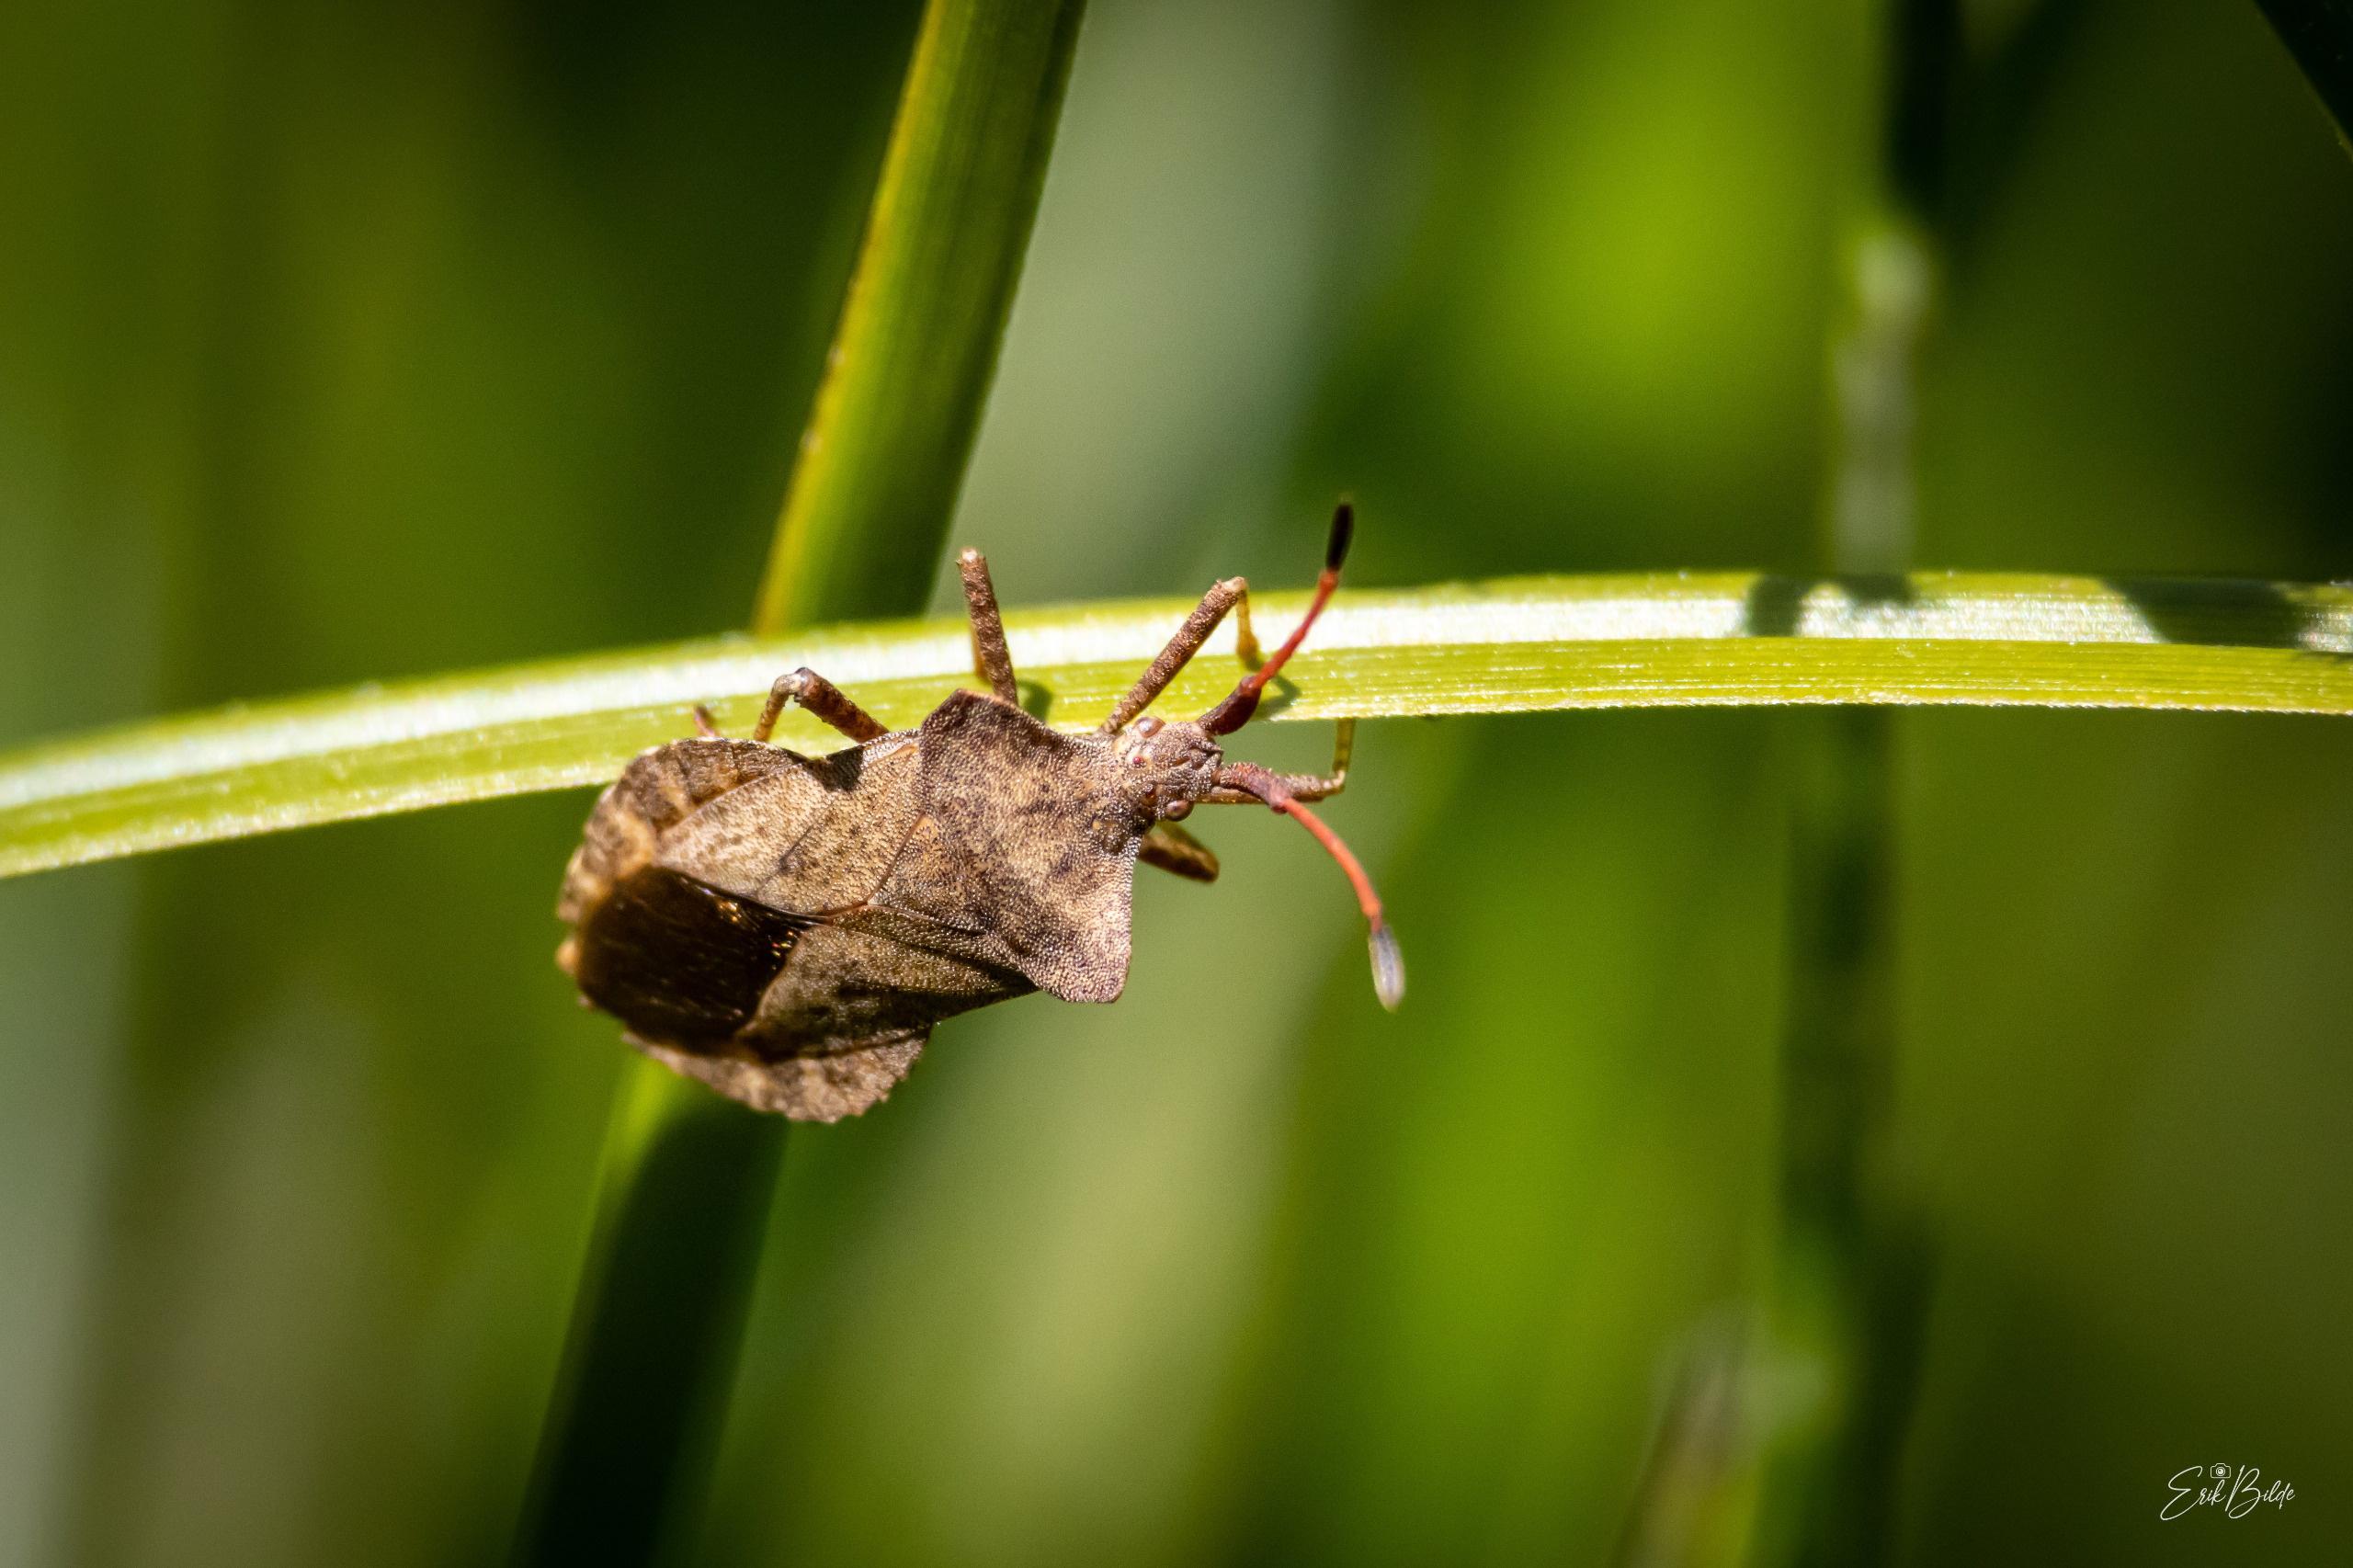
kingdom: Animalia
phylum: Arthropoda
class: Insecta
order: Hemiptera
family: Coreidae
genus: Coreus
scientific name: Coreus marginatus
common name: Skræppetæge
